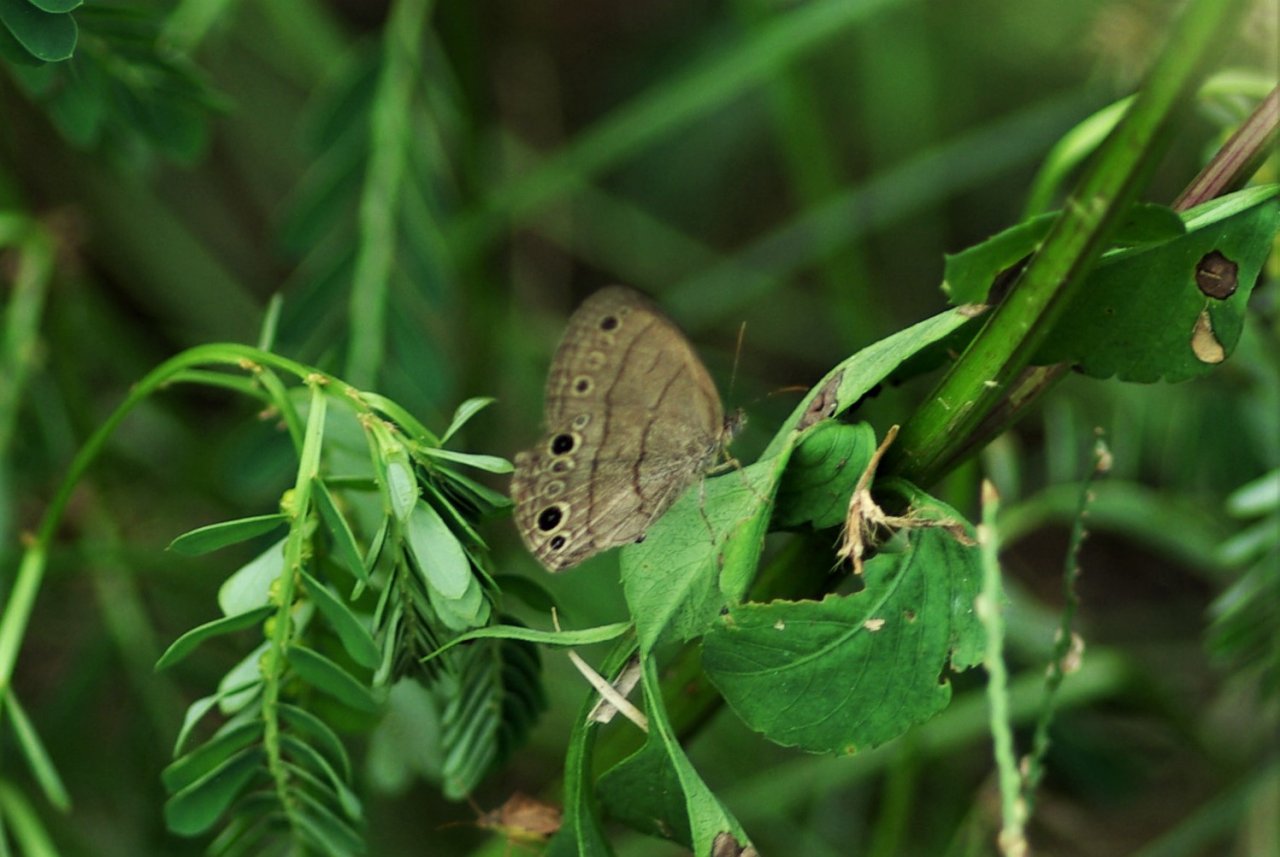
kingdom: Animalia
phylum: Arthropoda
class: Insecta
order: Lepidoptera
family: Nymphalidae
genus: Hermeuptychia
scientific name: Hermeuptychia hermes
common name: Carolina Satyr
